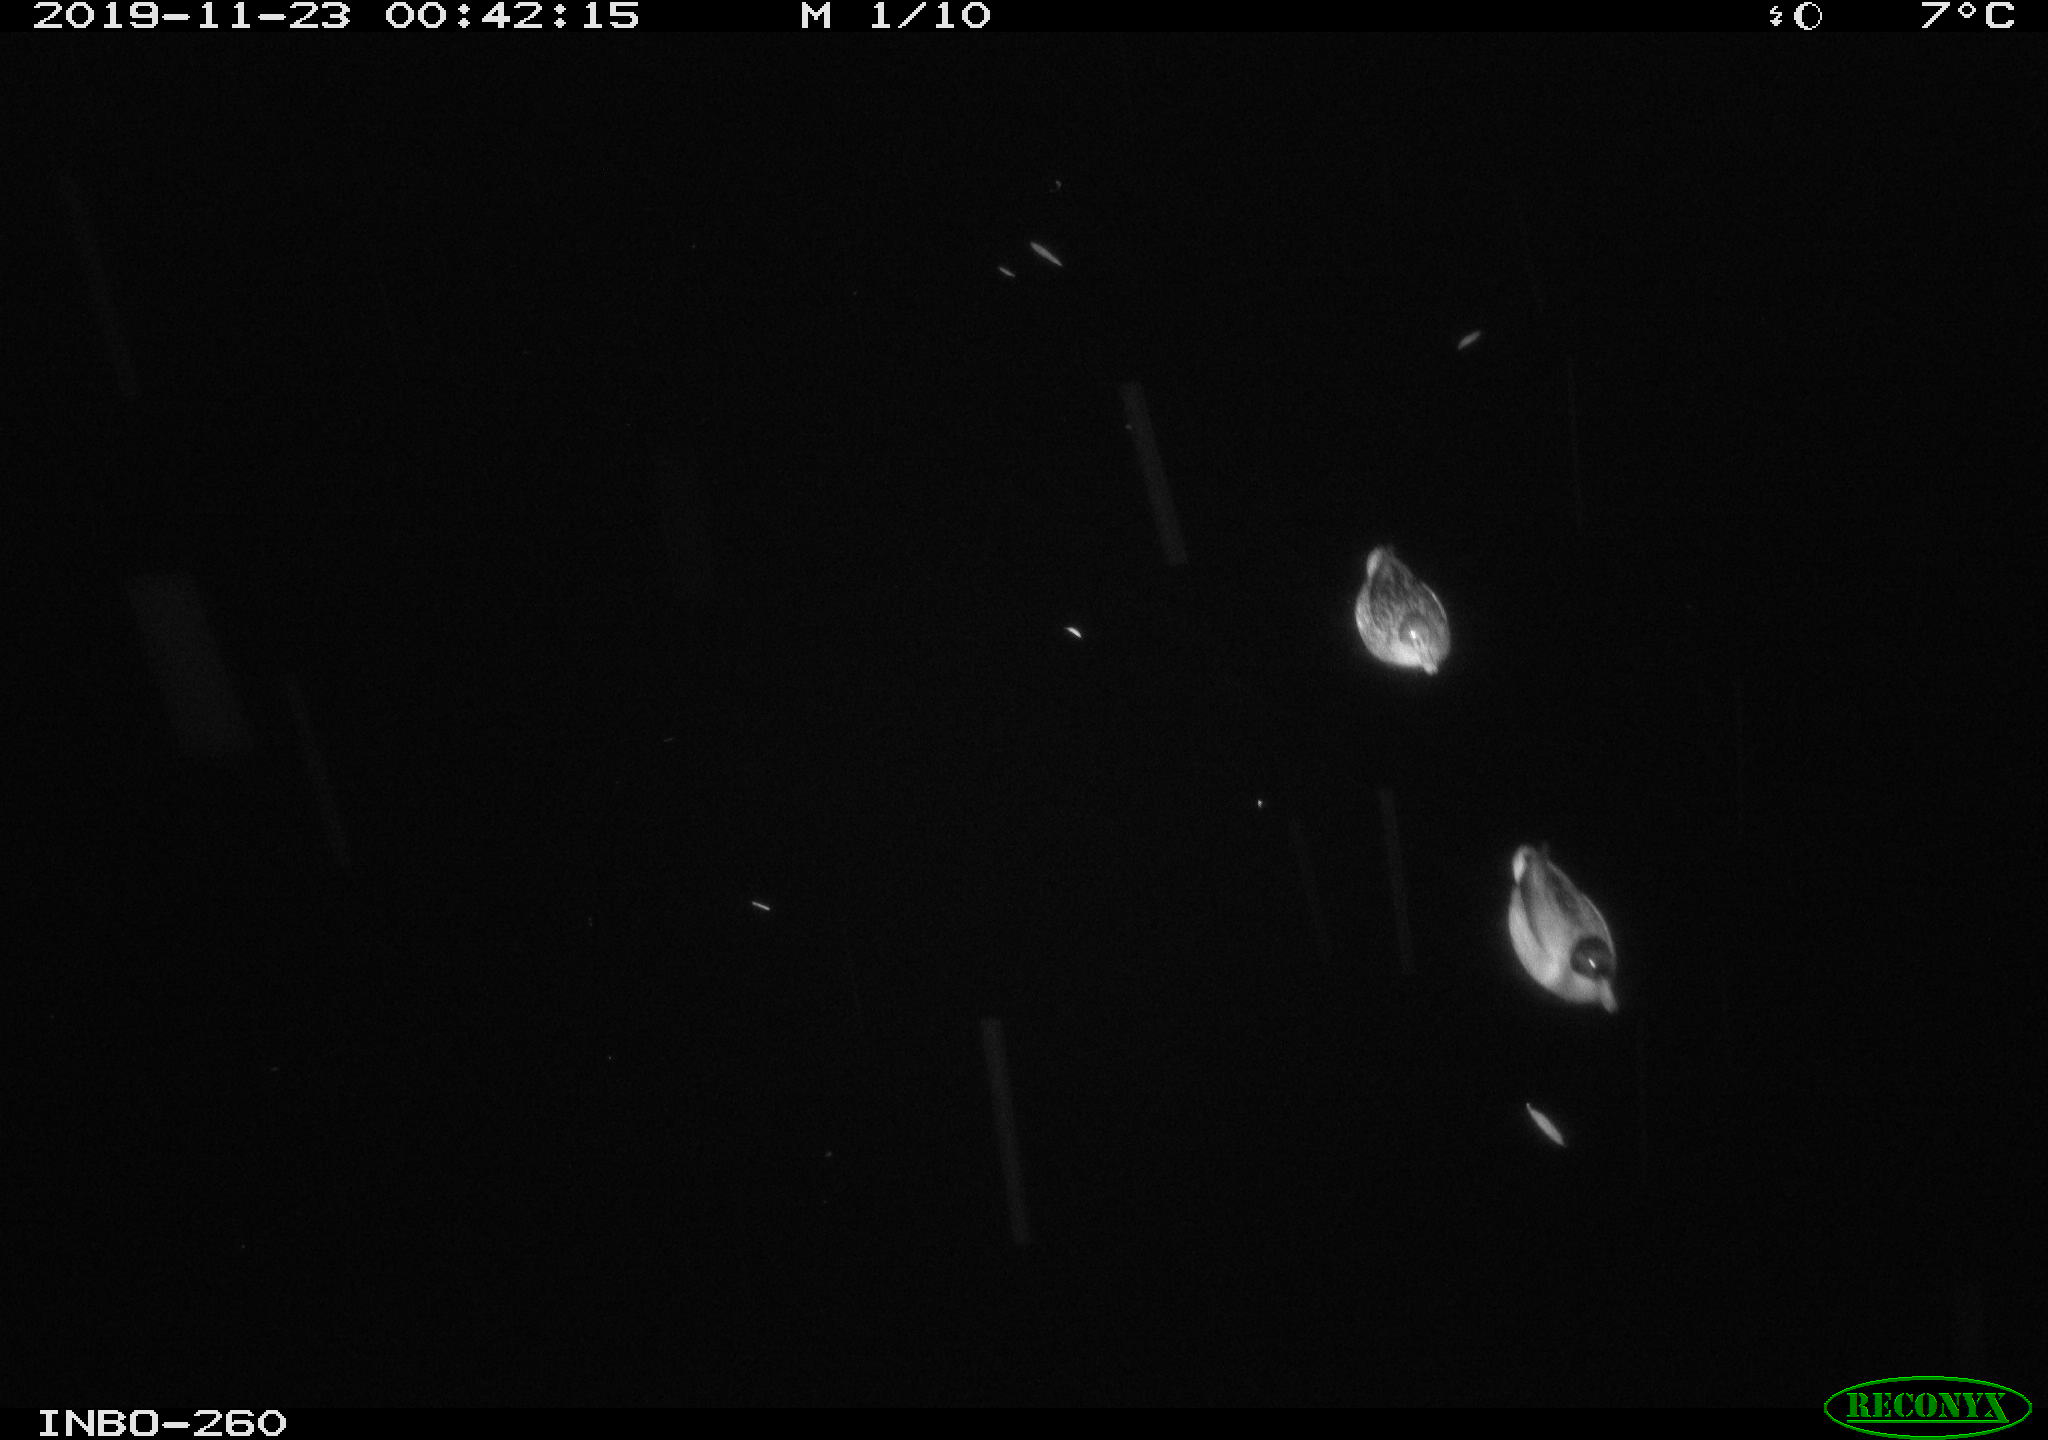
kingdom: Animalia
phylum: Chordata
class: Aves
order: Anseriformes
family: Anatidae
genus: Anas
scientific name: Anas platyrhynchos
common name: Mallard
